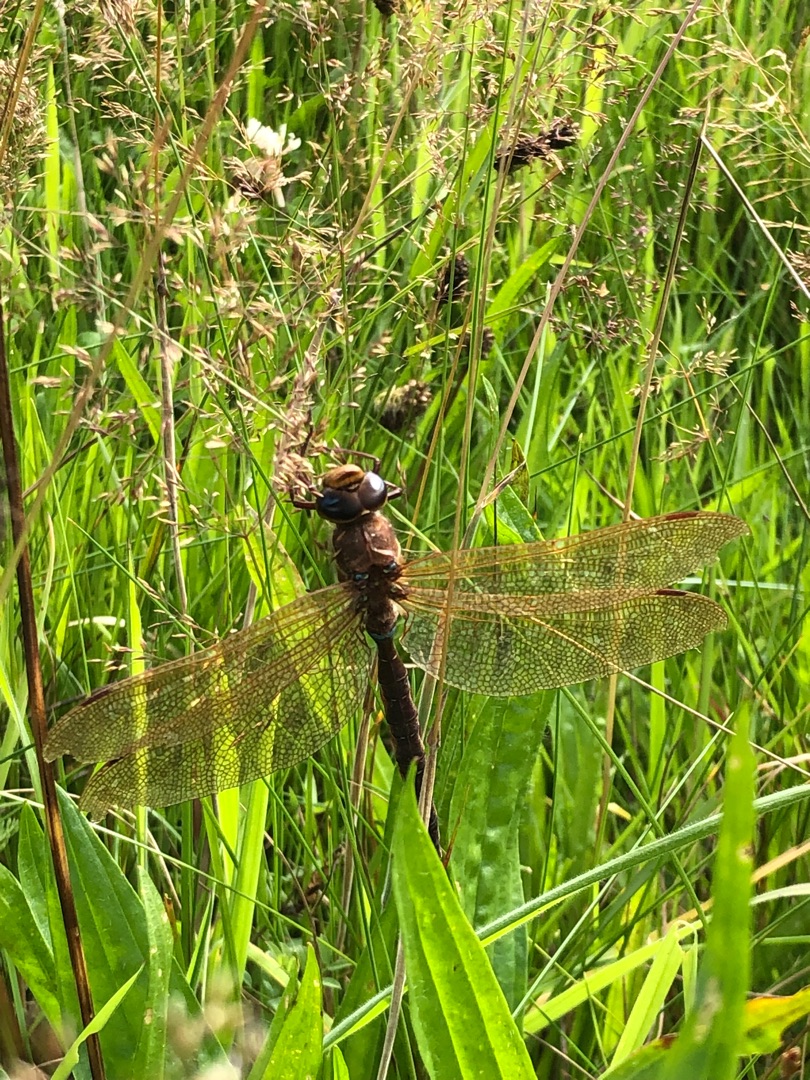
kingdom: Animalia
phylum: Arthropoda
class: Insecta
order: Odonata
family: Aeshnidae
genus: Aeshna
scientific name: Aeshna grandis
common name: Brun mosaikguldsmed
